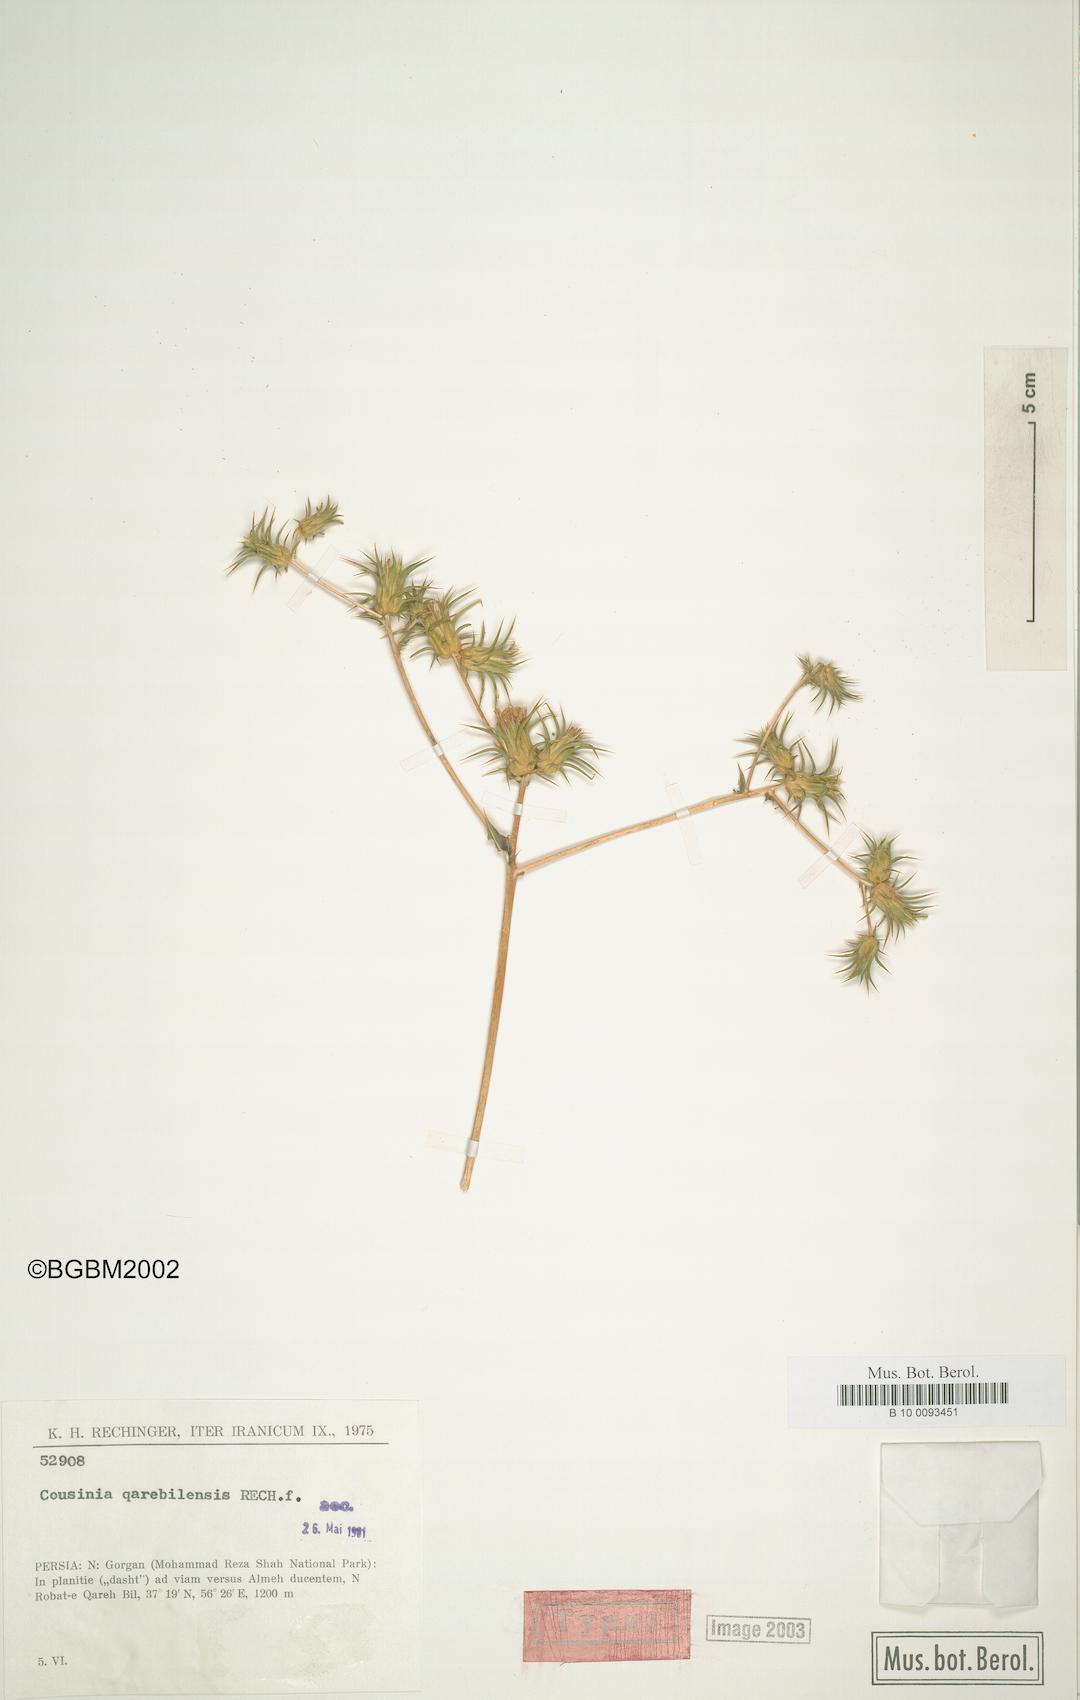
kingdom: Plantae
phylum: Tracheophyta
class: Magnoliopsida
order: Asterales
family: Asteraceae
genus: Cousinia
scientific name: Cousinia qarehbilensis
